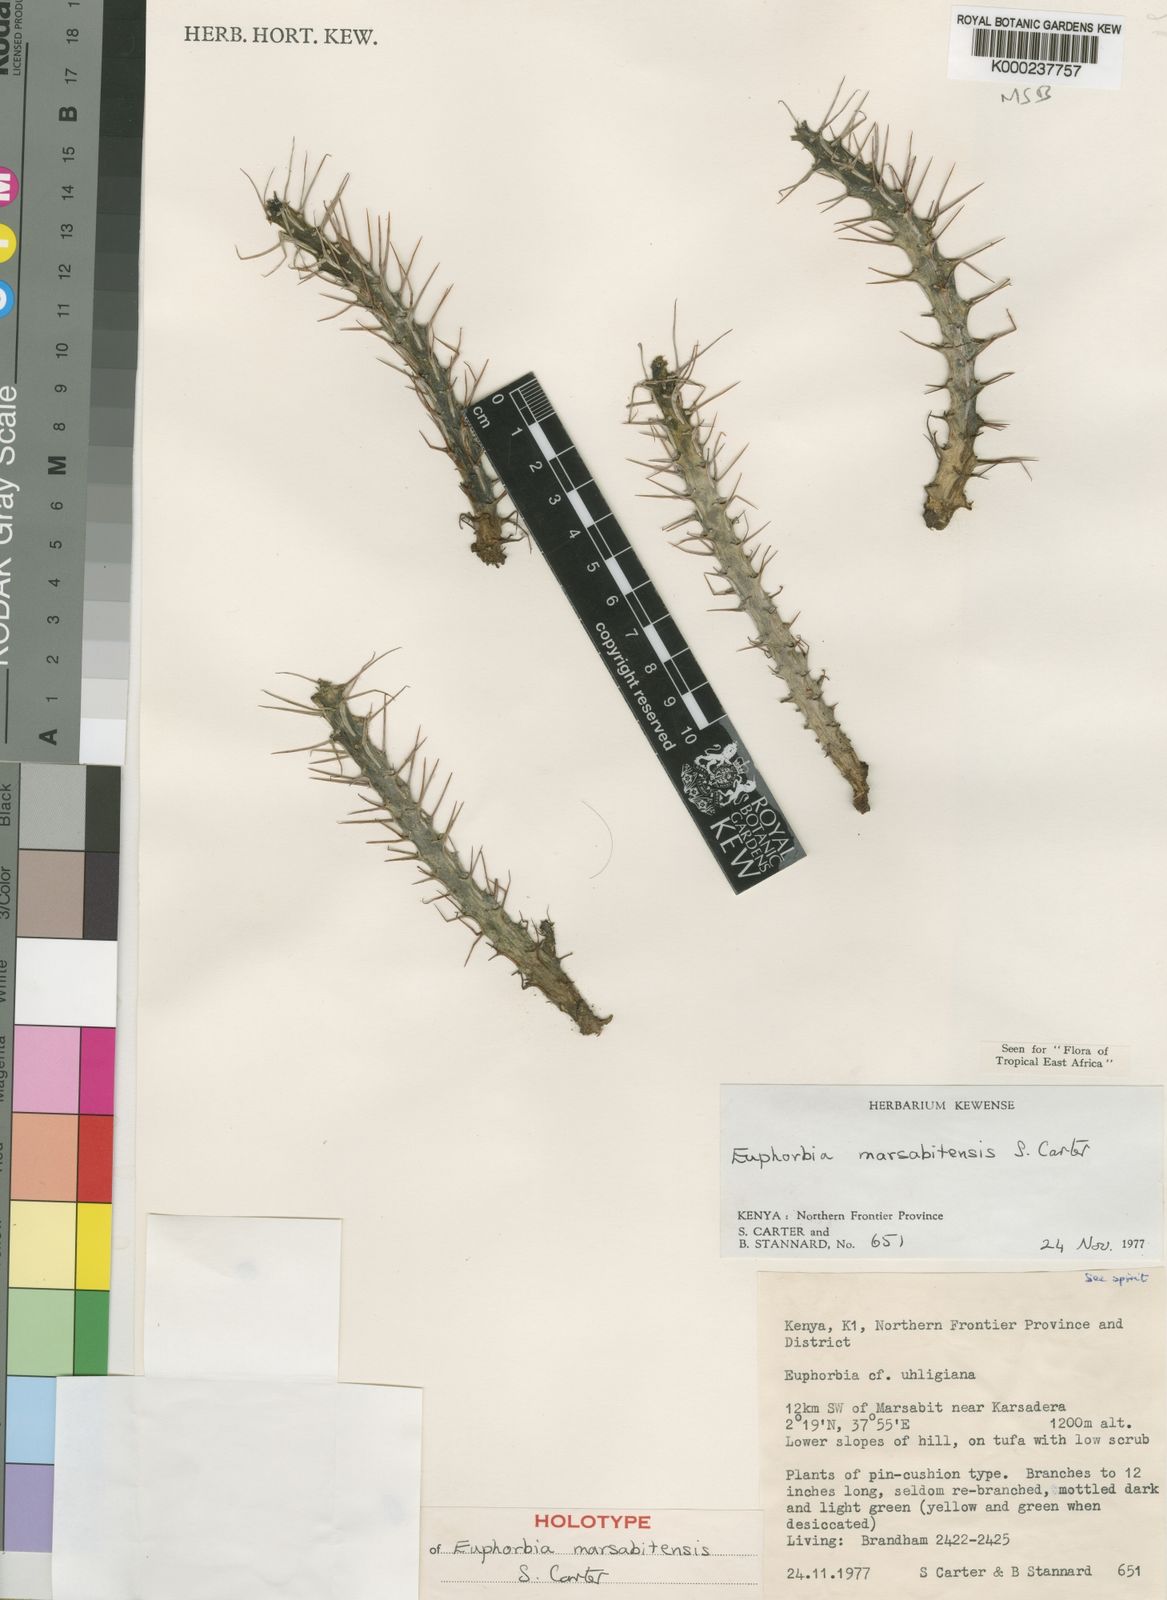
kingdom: Plantae
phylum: Tracheophyta
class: Magnoliopsida
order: Malpighiales
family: Euphorbiaceae
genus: Euphorbia
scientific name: Euphorbia marsabitensis
